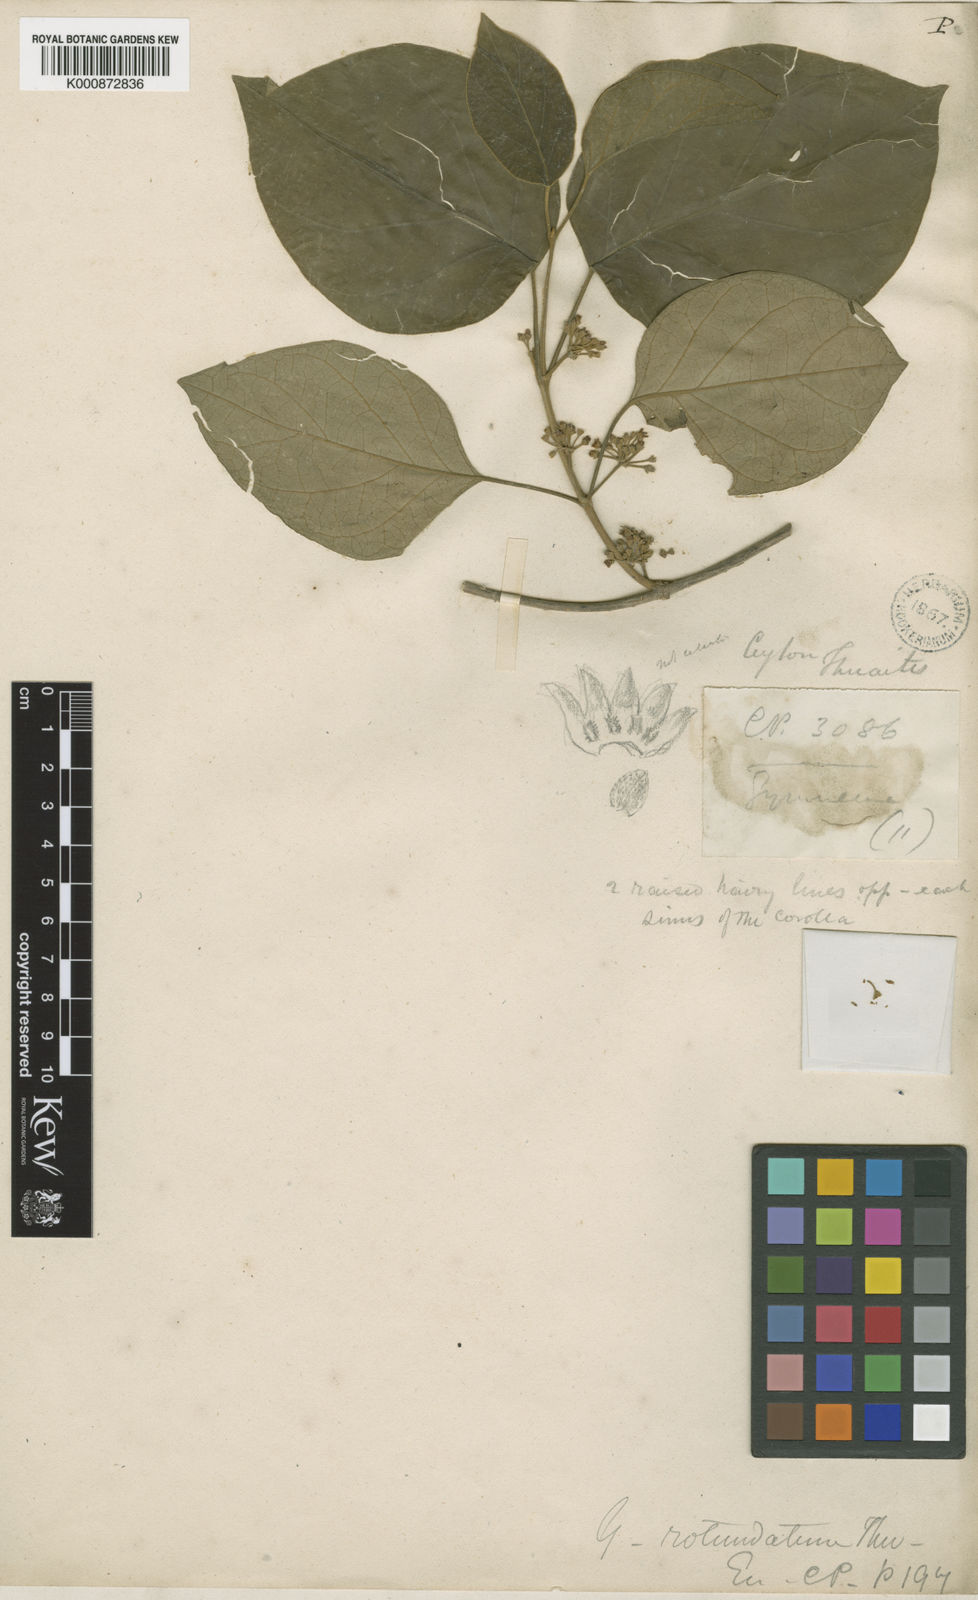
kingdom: Plantae
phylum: Tracheophyta
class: Magnoliopsida
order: Gentianales
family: Apocynaceae
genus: Gymnema
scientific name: Gymnema rotundatum
